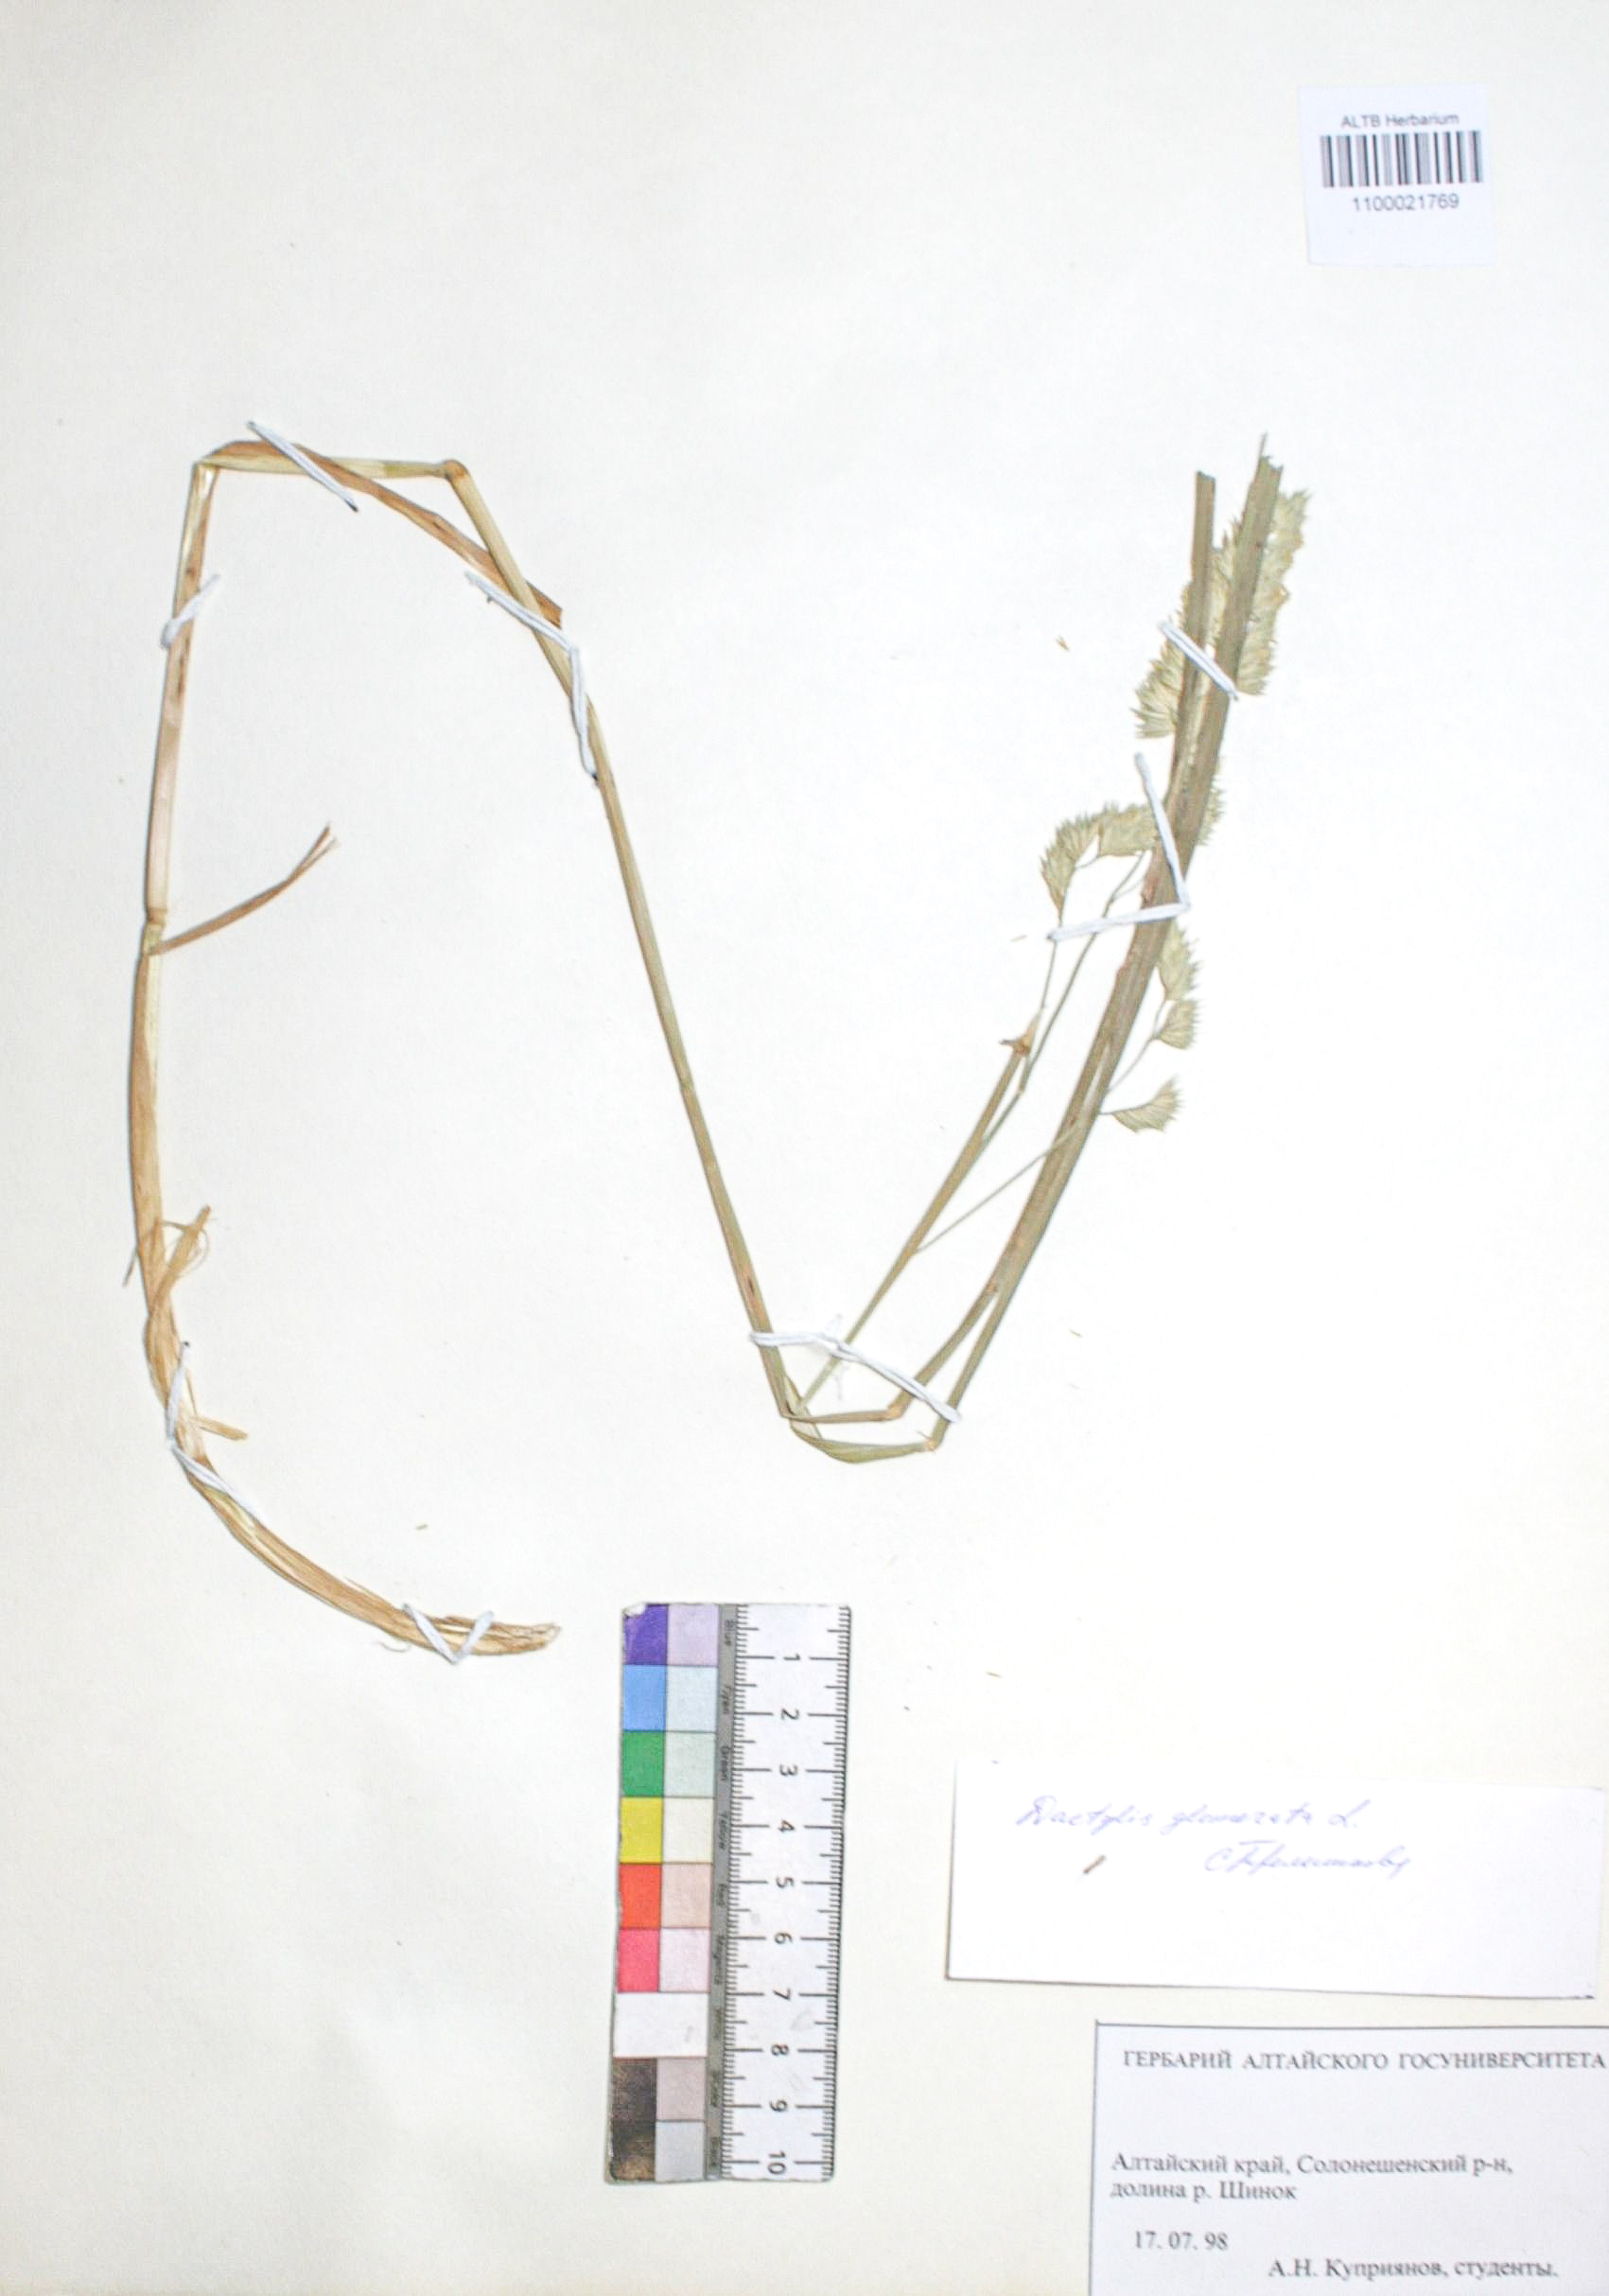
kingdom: Plantae
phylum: Tracheophyta
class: Liliopsida
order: Poales
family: Poaceae
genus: Dactylis
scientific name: Dactylis glomerata
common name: Orchardgrass
